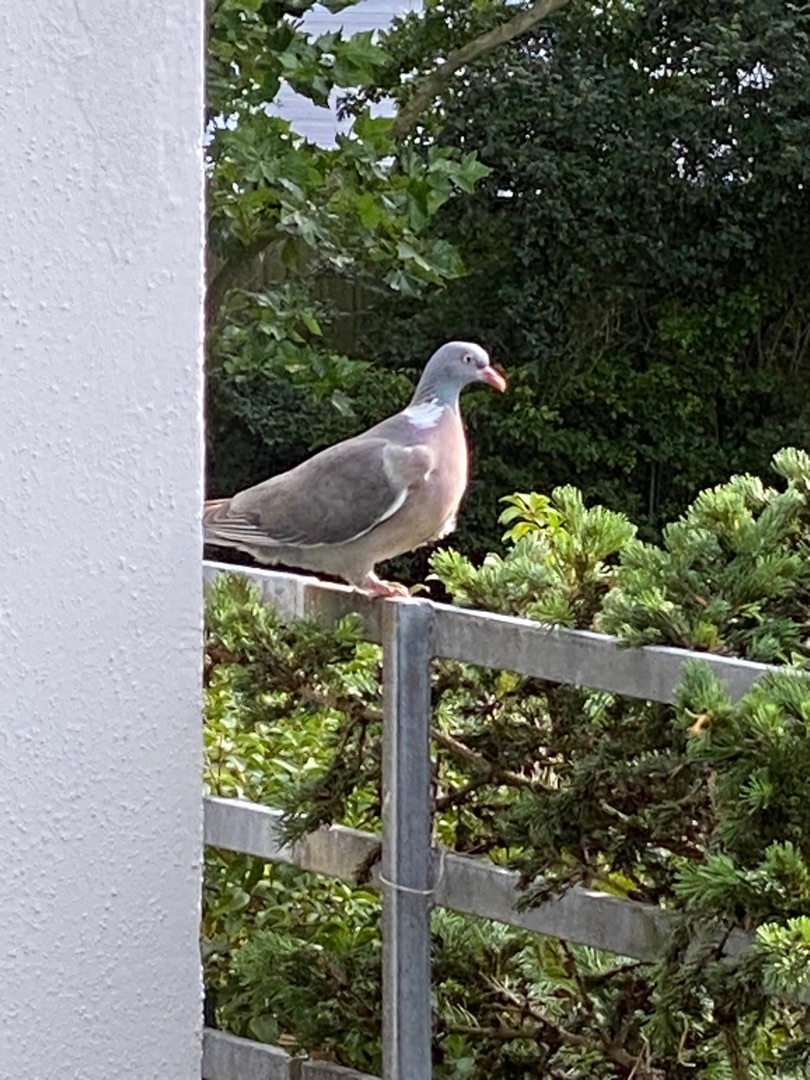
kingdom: Animalia
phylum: Chordata
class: Aves
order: Columbiformes
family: Columbidae
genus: Columba
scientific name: Columba palumbus
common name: Ringdue
